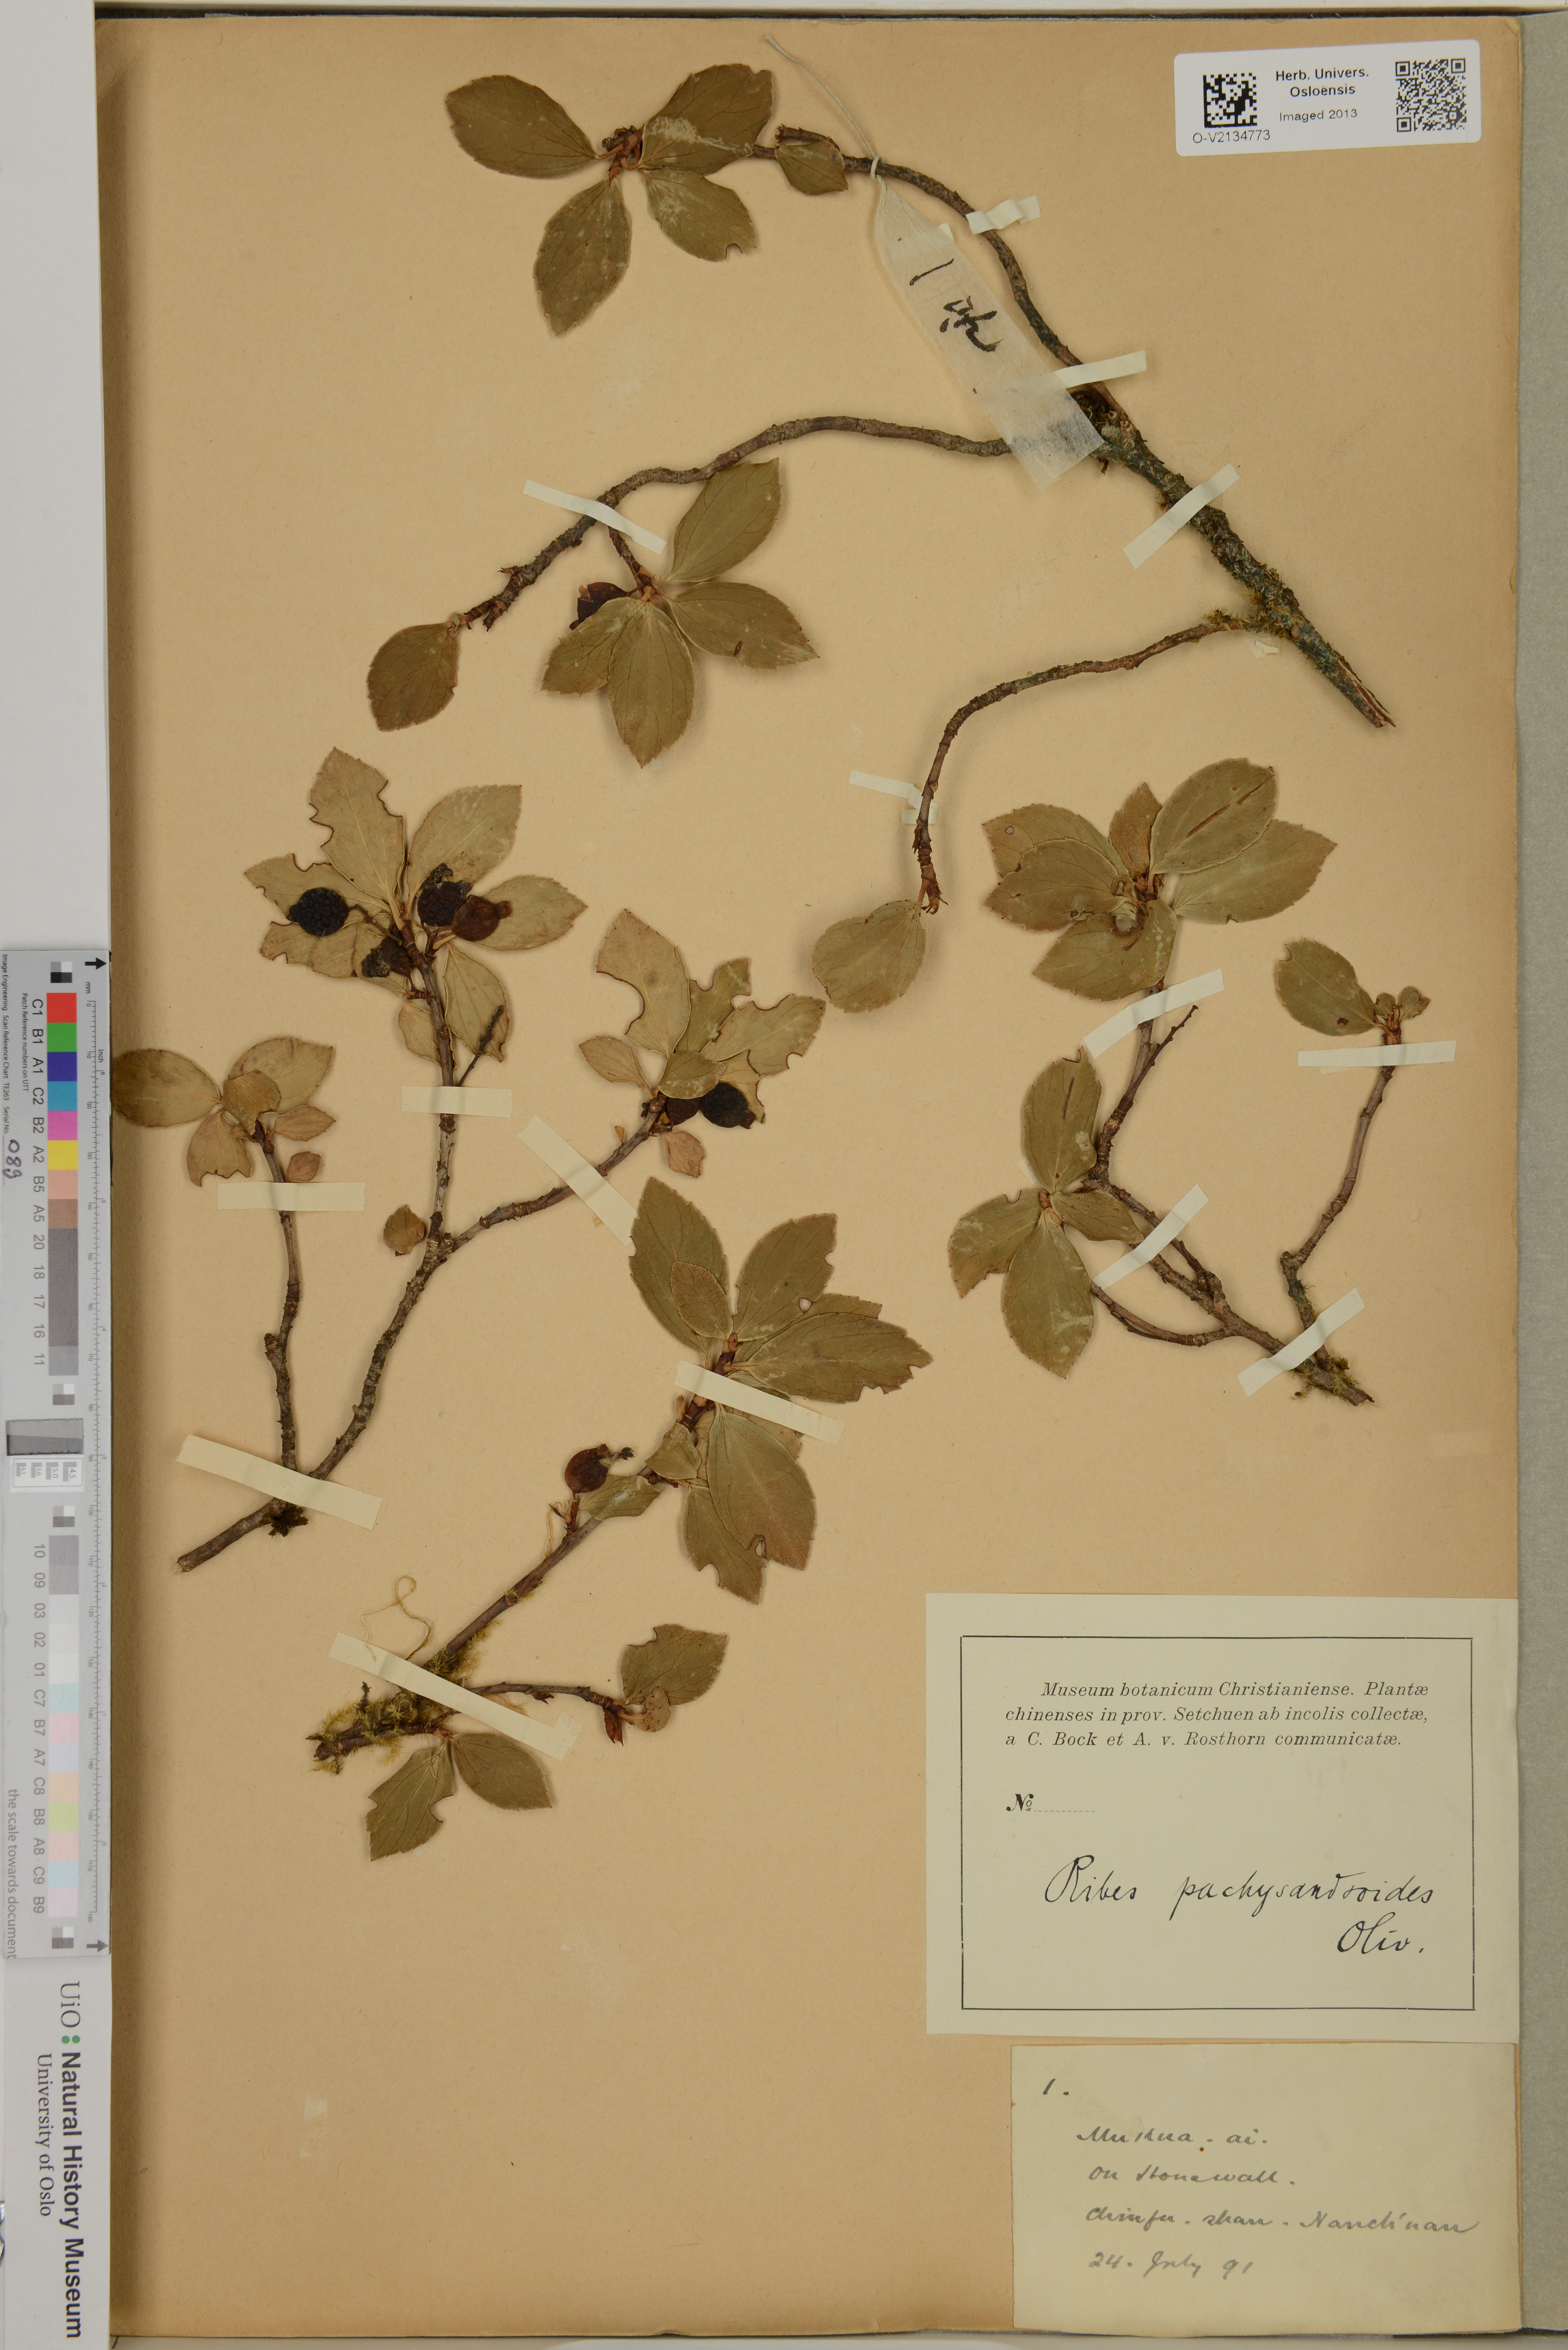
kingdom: Plantae
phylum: Tracheophyta
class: Magnoliopsida
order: Saxifragales
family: Grossulariaceae
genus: Ribes
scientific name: Ribes davidii
